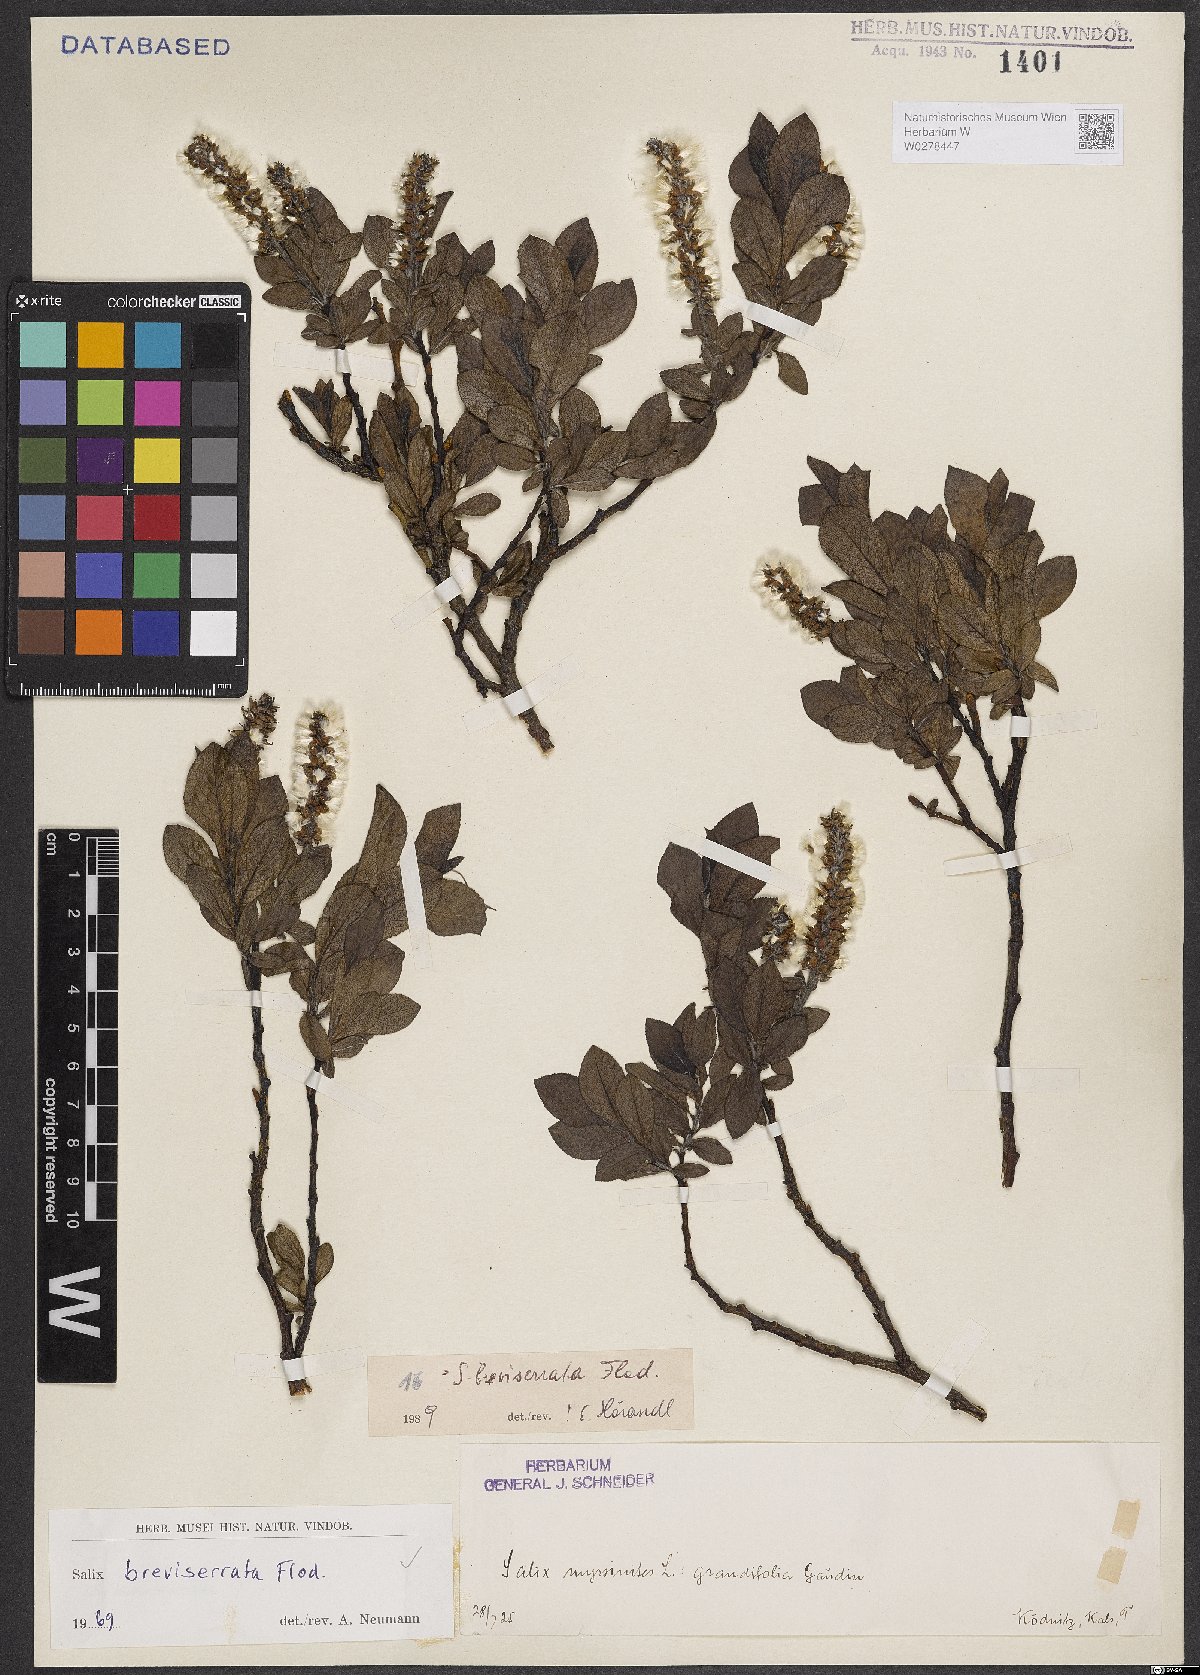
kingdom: Plantae
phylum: Tracheophyta
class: Magnoliopsida
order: Malpighiales
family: Salicaceae
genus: Salix
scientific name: Salix breviserrata
